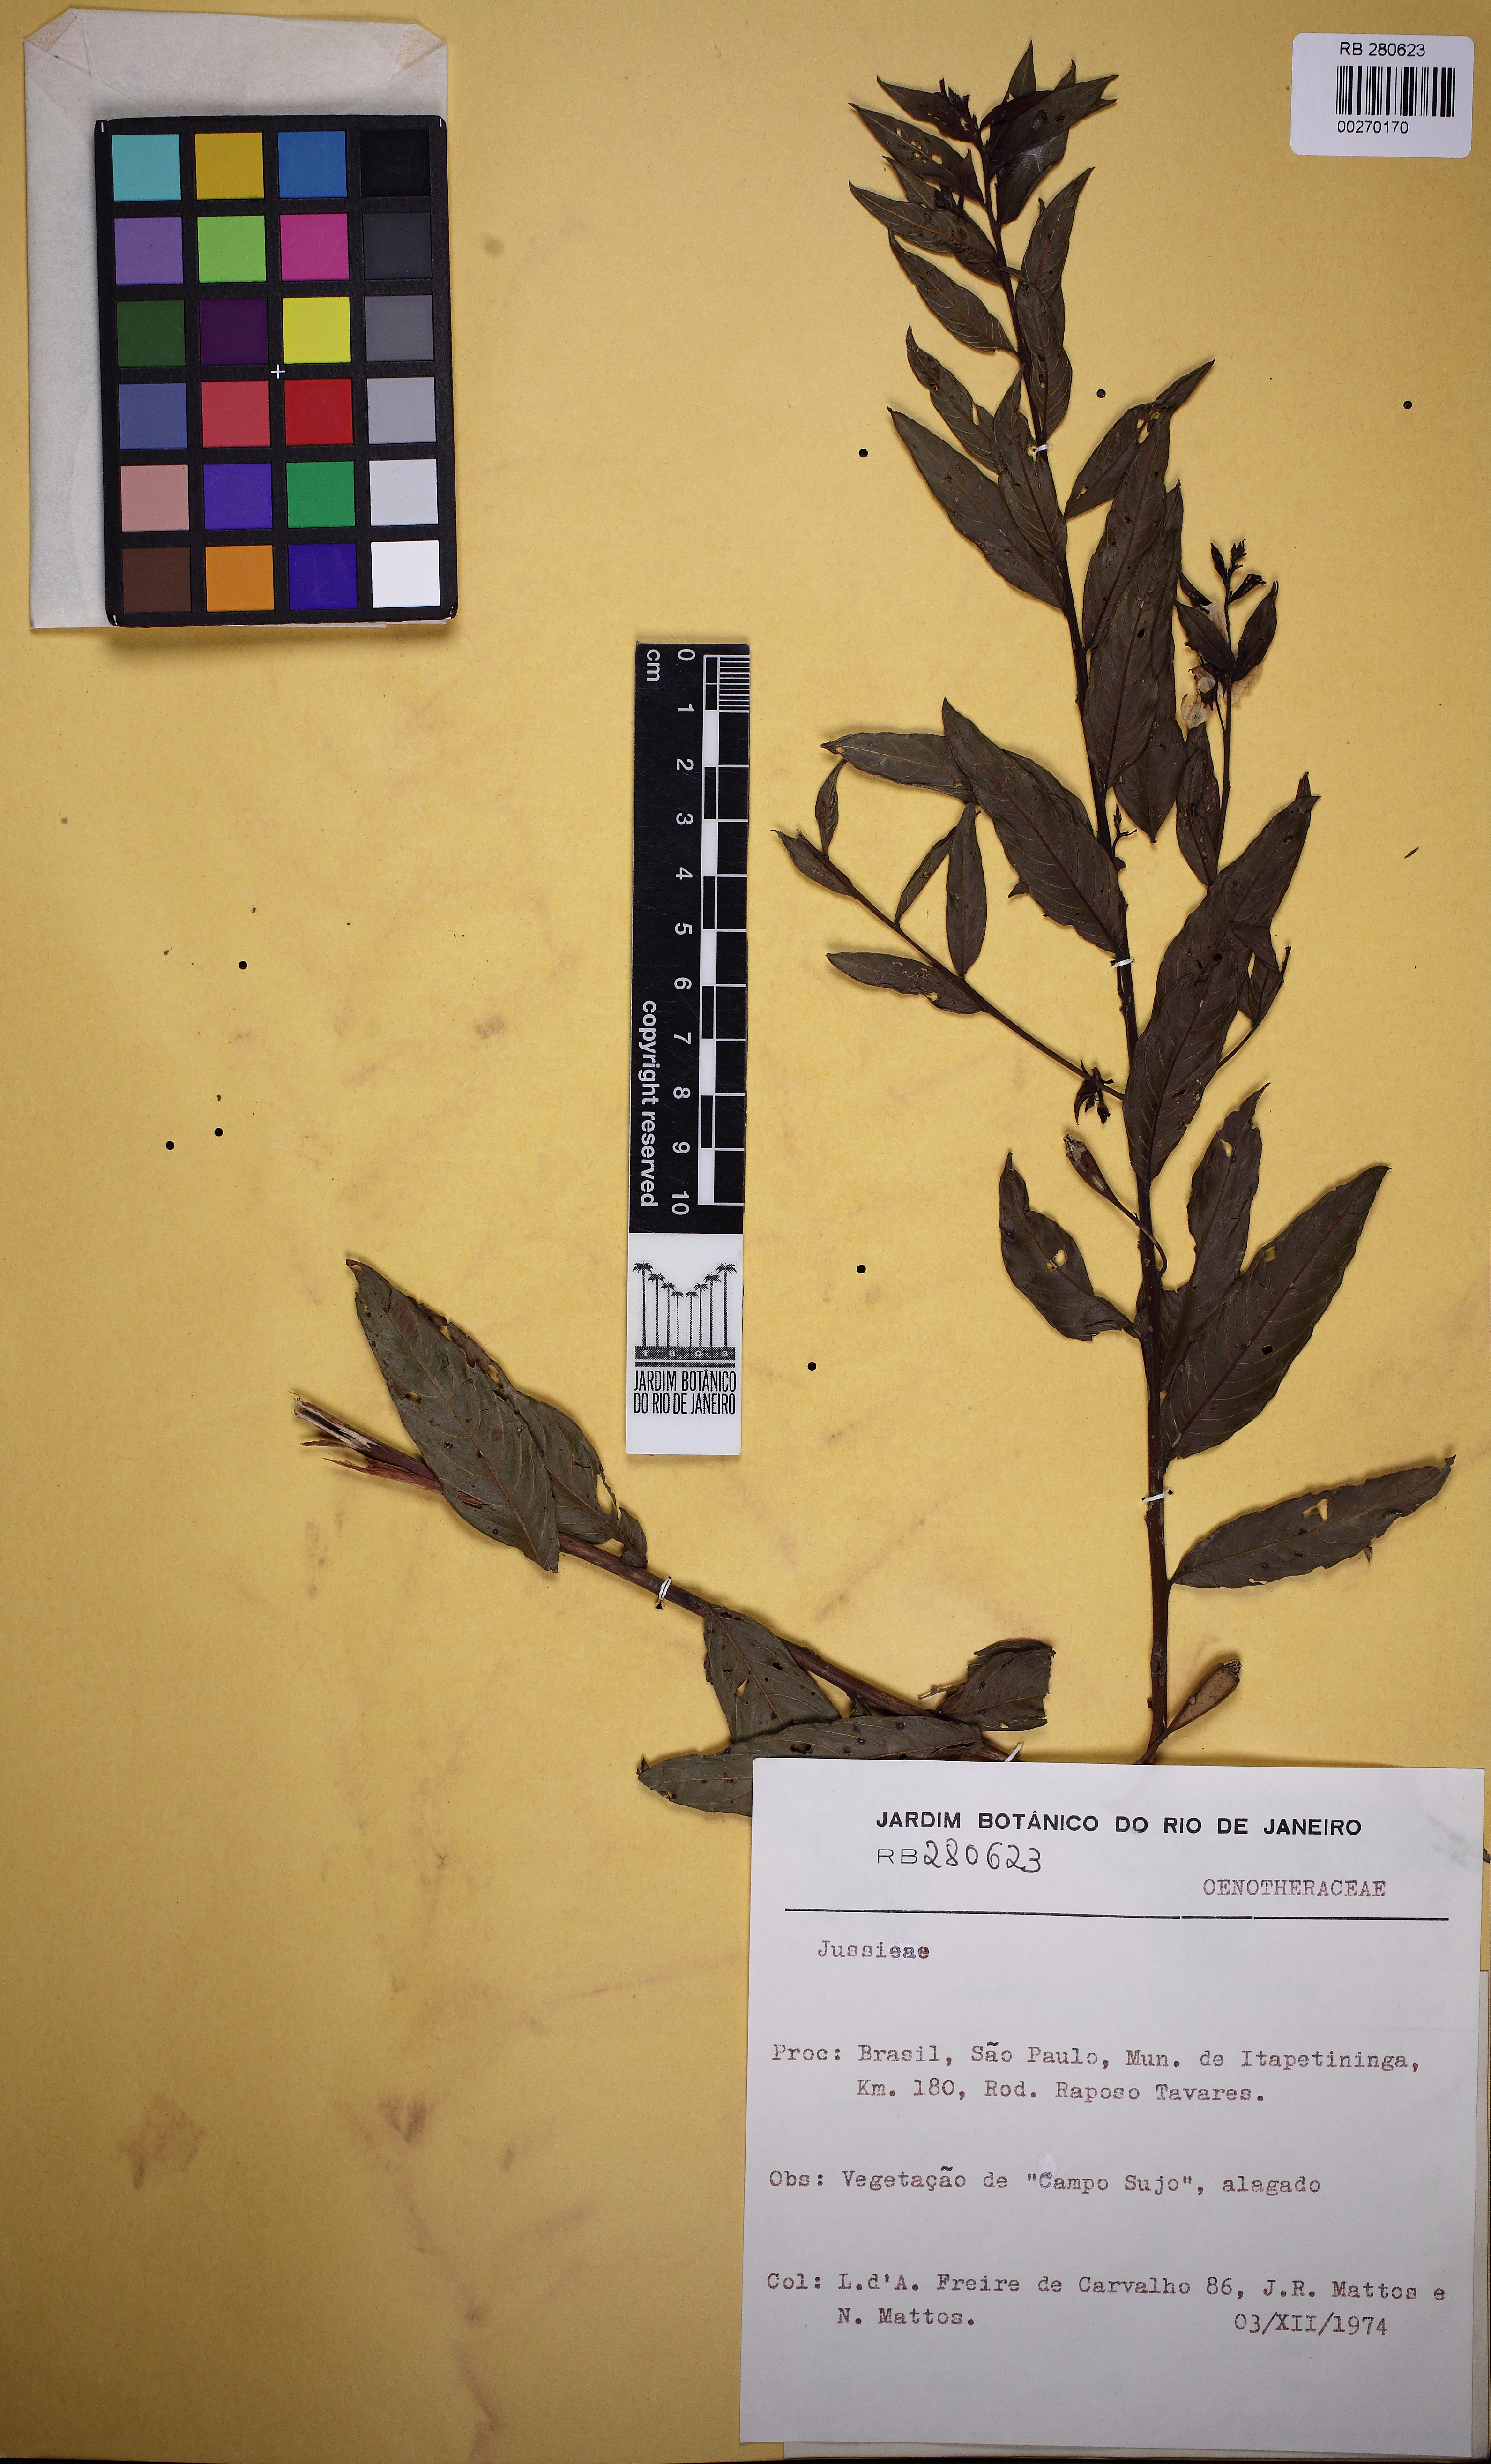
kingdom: Plantae
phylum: Tracheophyta
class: Magnoliopsida
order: Myrtales
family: Onagraceae
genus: Ludwigia
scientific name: Ludwigia
